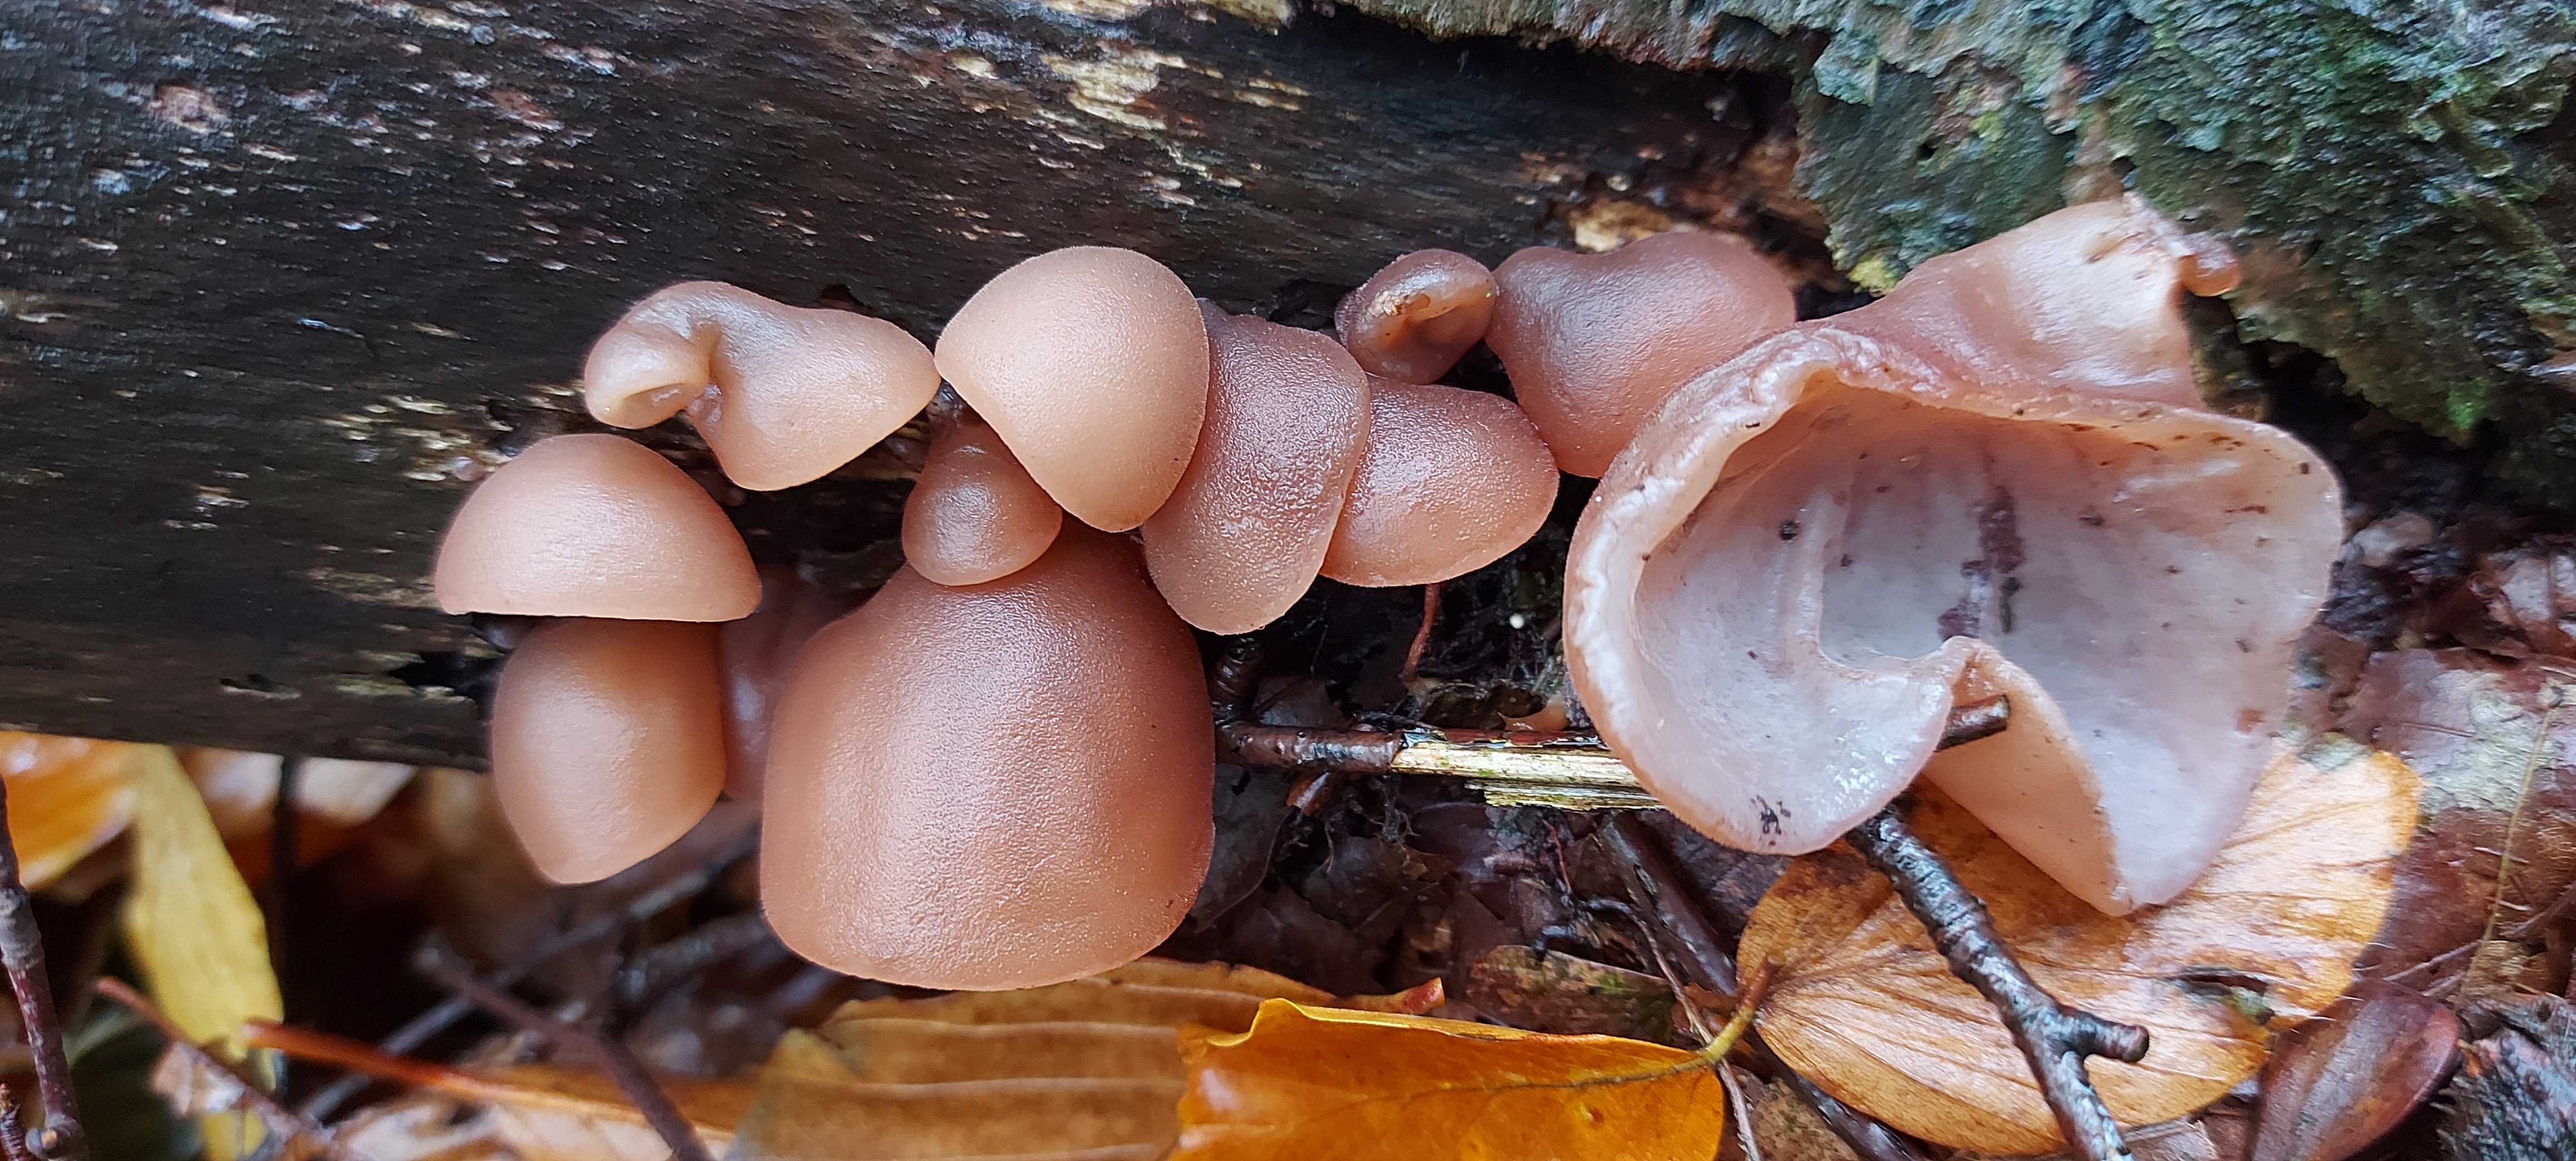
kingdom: Fungi
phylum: Basidiomycota
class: Agaricomycetes
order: Auriculariales
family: Auriculariaceae
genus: Auricularia
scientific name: Auricularia auricula-judae
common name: almindelig judasøre
